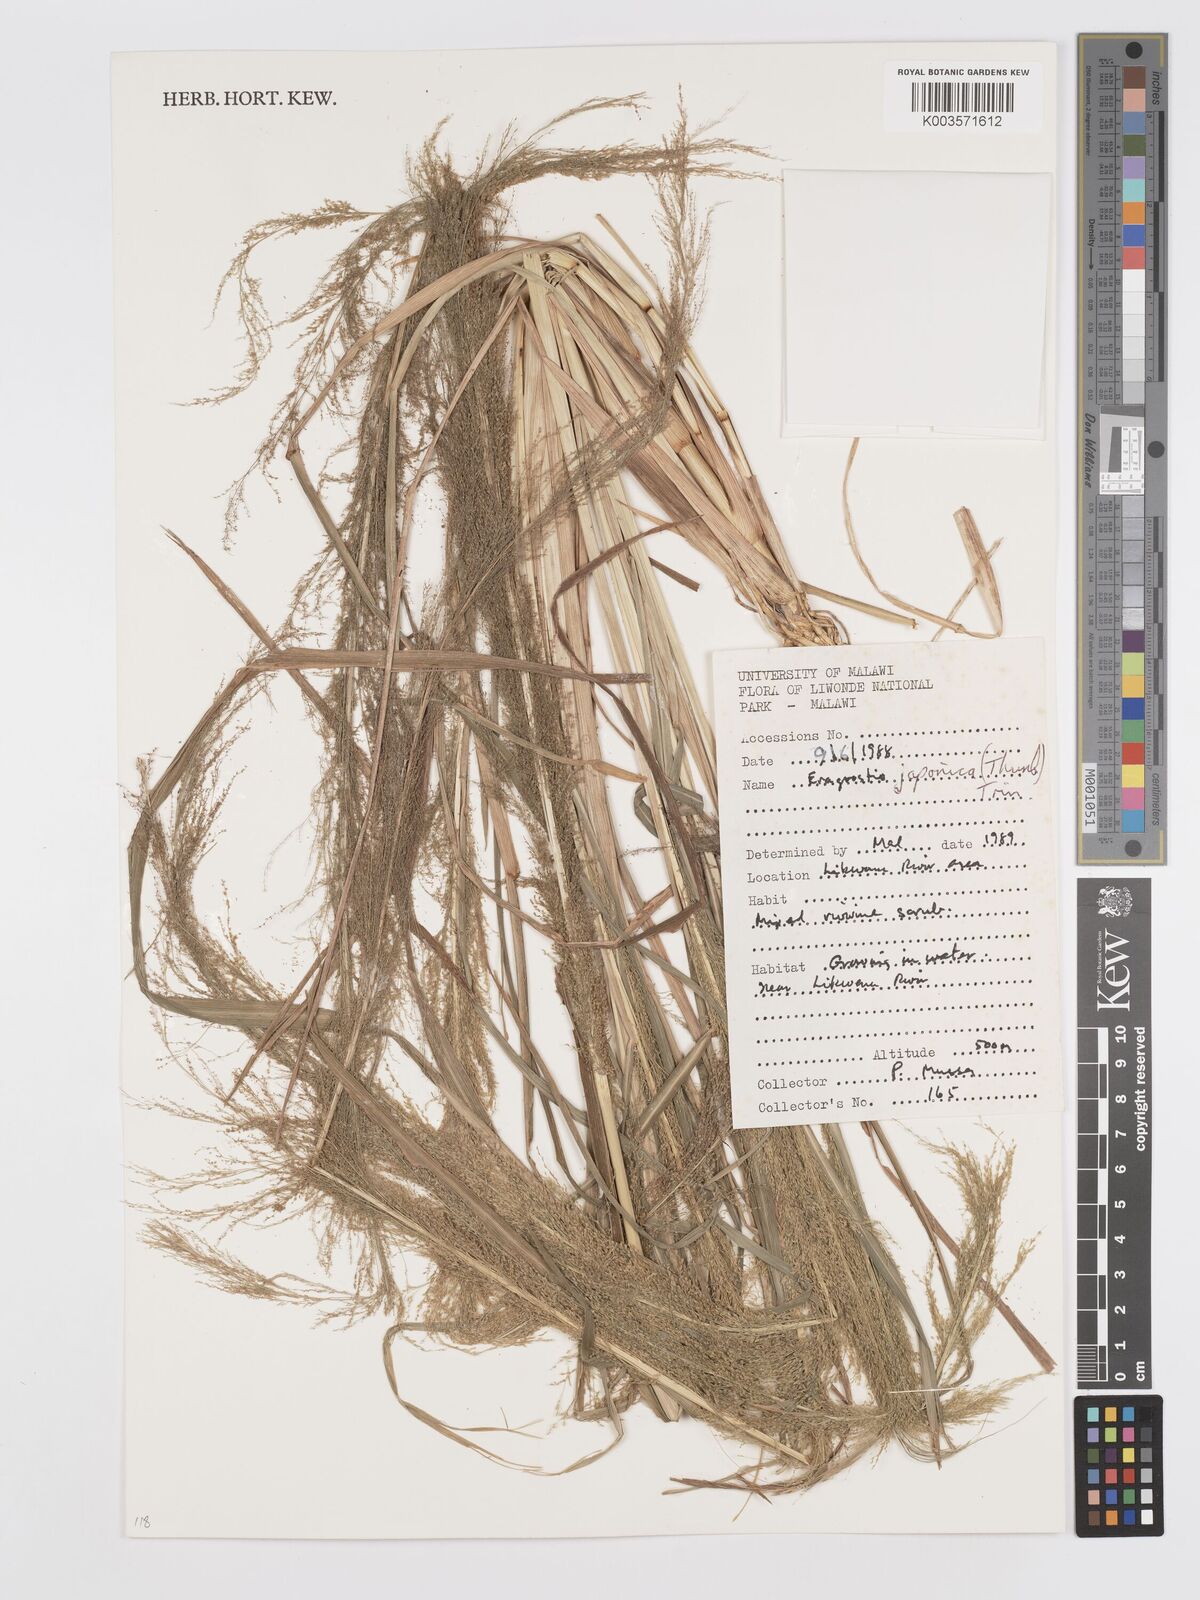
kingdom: Plantae
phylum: Tracheophyta
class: Liliopsida
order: Poales
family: Poaceae
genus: Eragrostis
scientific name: Eragrostis japonica
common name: Pond lovegrass
